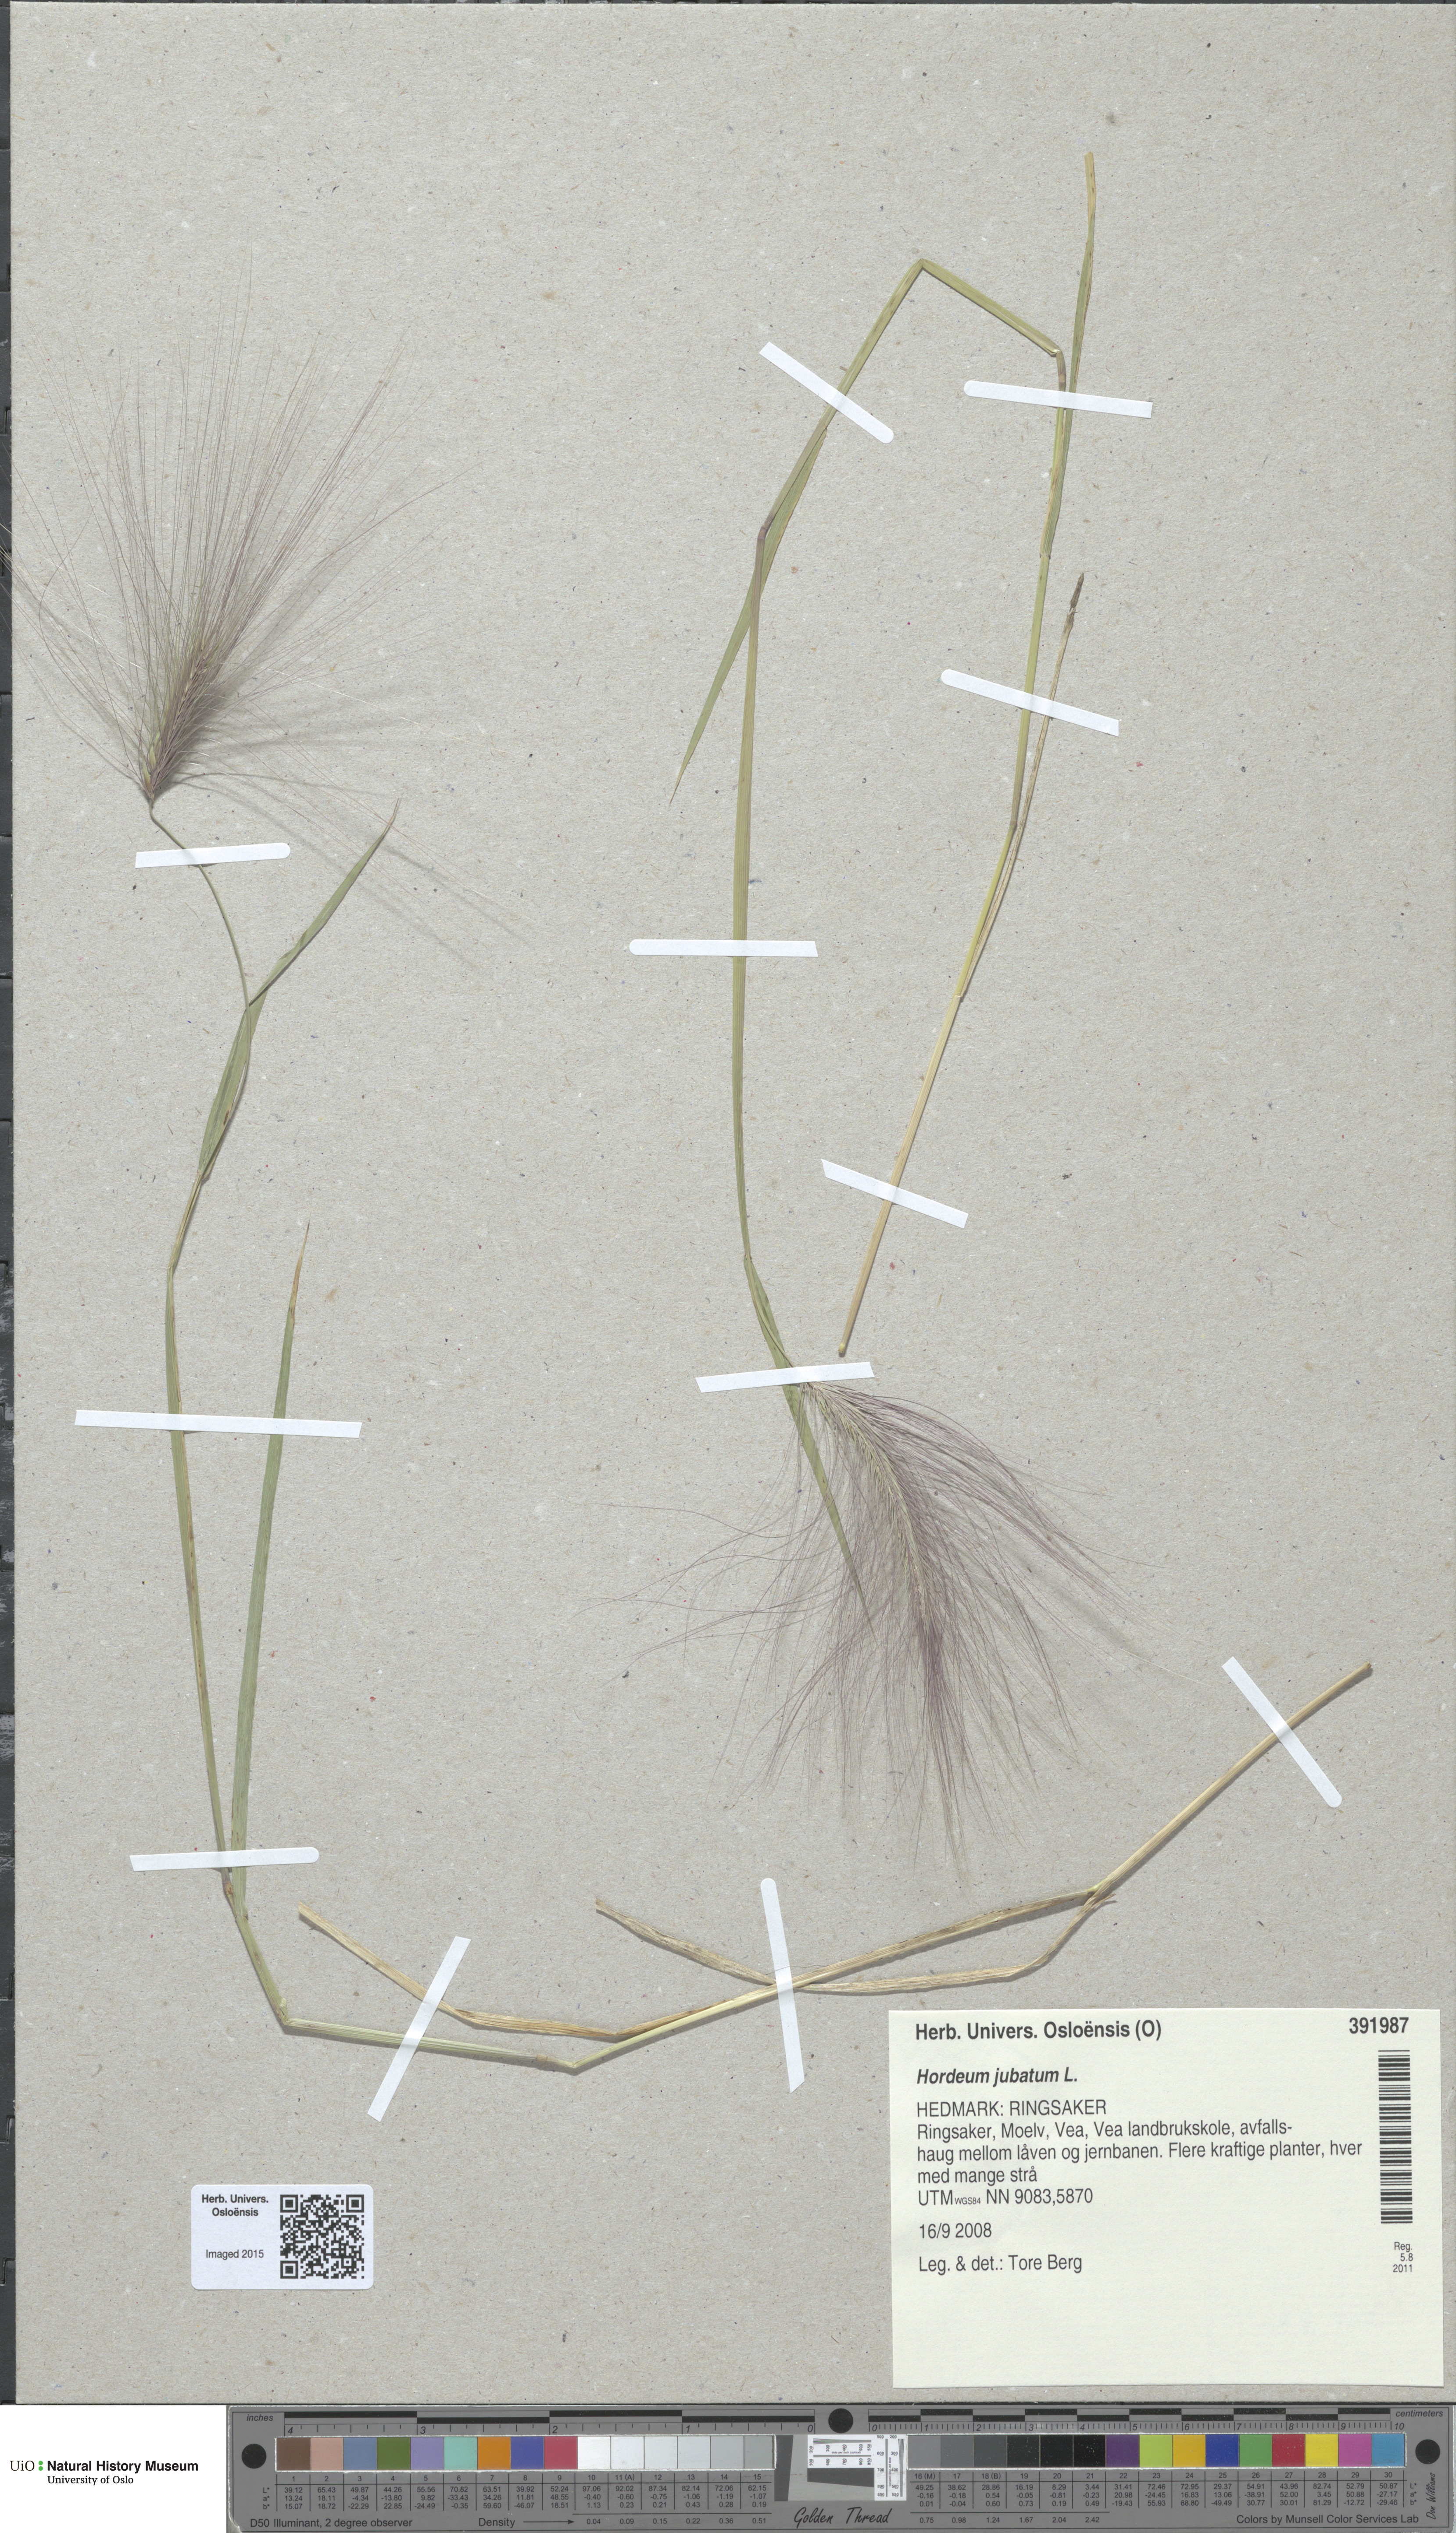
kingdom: Plantae
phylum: Tracheophyta
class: Liliopsida
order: Poales
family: Poaceae
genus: Hordeum
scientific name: Hordeum jubatum
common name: Foxtail barley
